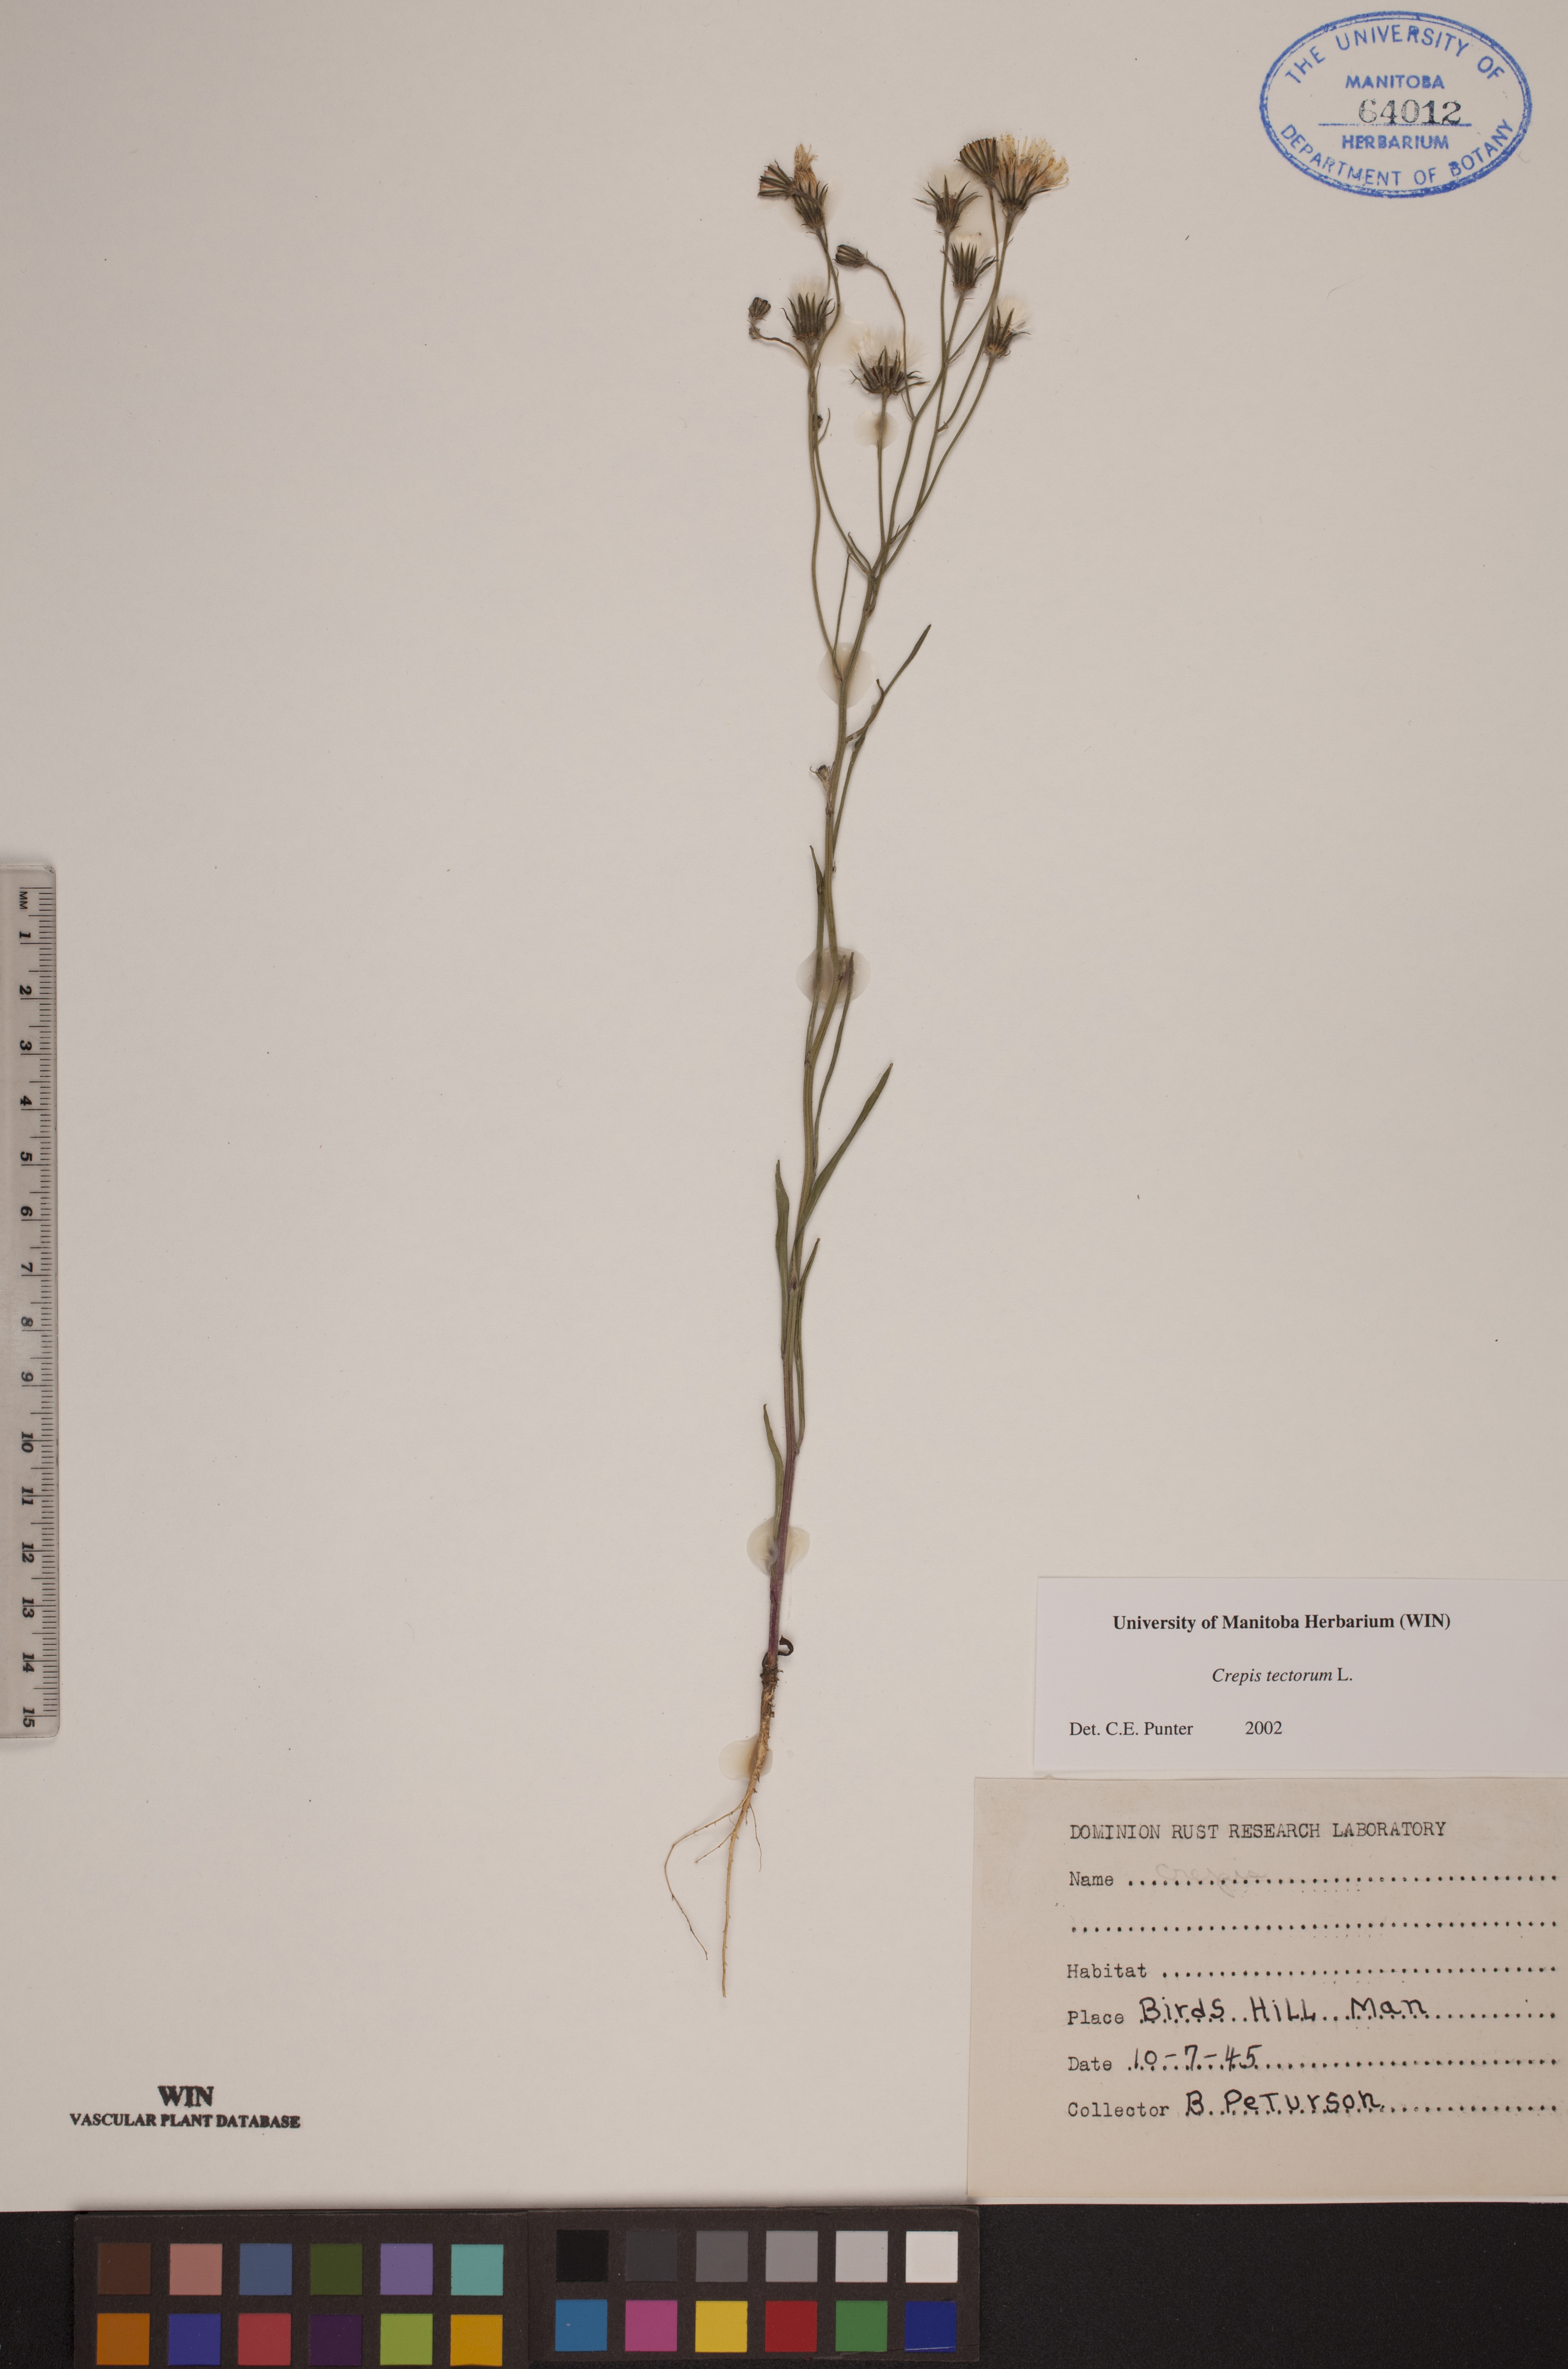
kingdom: Plantae
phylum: Tracheophyta
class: Magnoliopsida
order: Asterales
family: Asteraceae
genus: Crepis
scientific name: Crepis tectorum
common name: Narrow-leaved hawk's-beard
